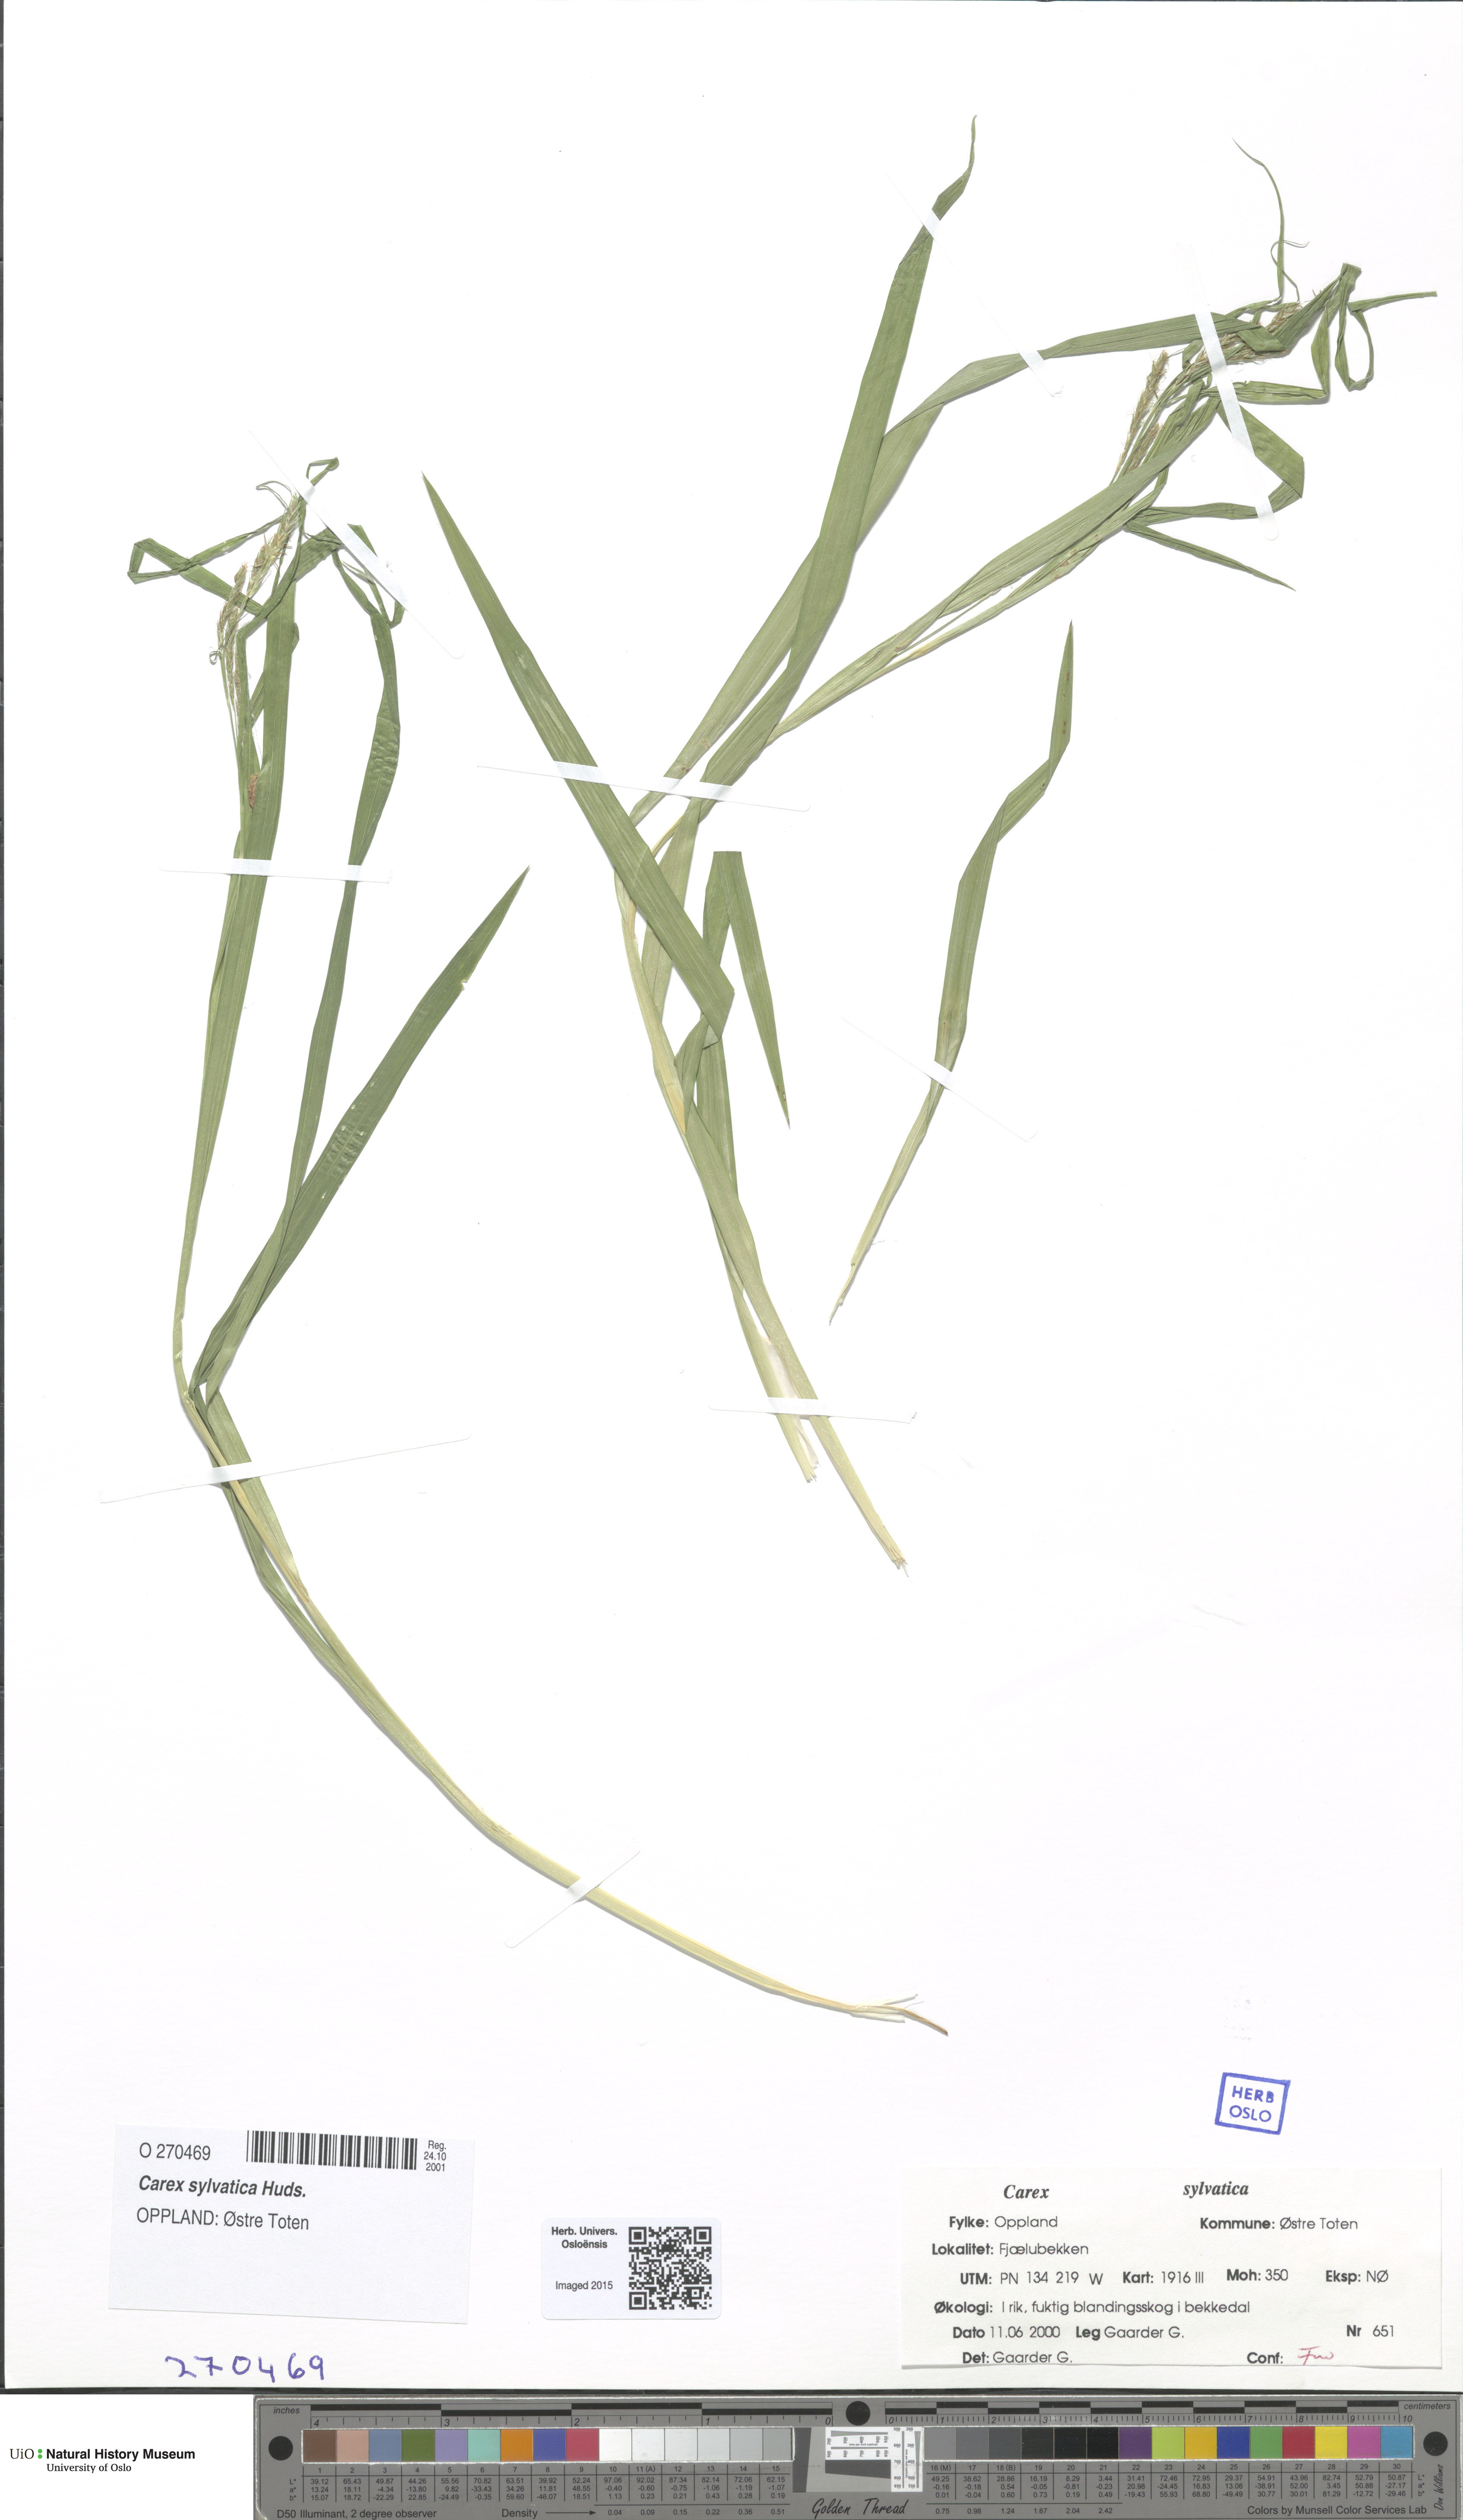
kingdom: Plantae
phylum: Tracheophyta
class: Liliopsida
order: Poales
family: Cyperaceae
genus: Carex
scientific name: Carex sylvatica
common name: Wood-sedge
